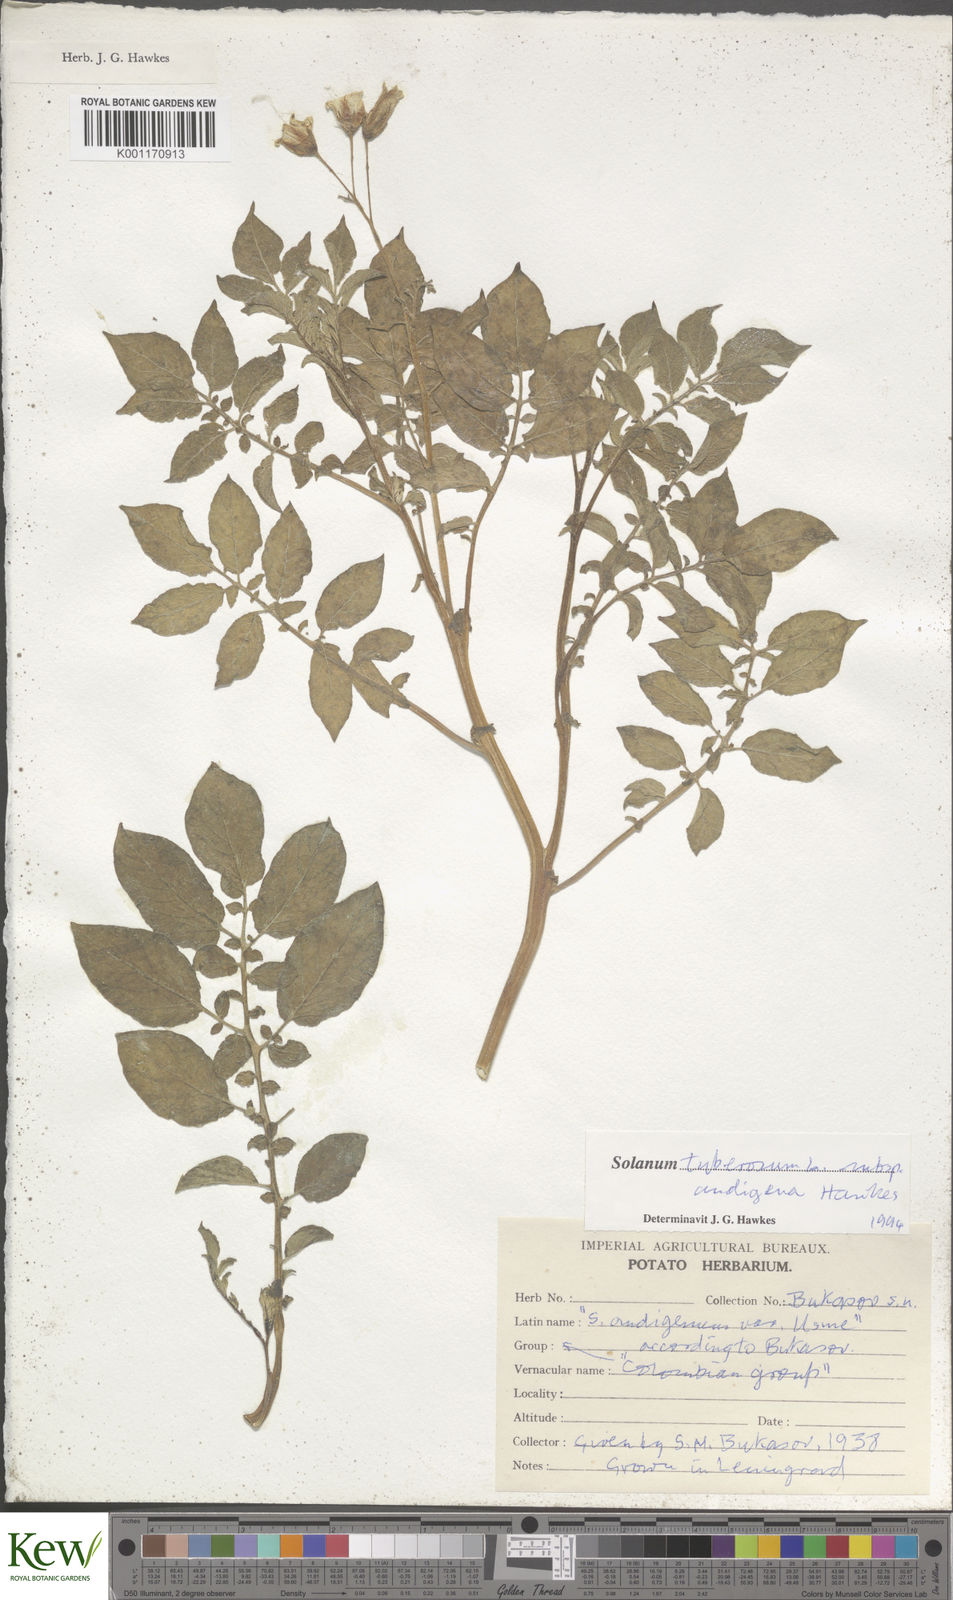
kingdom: Plantae
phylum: Tracheophyta
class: Magnoliopsida
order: Solanales
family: Solanaceae
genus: Solanum
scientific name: Solanum tuberosum
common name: Potato
